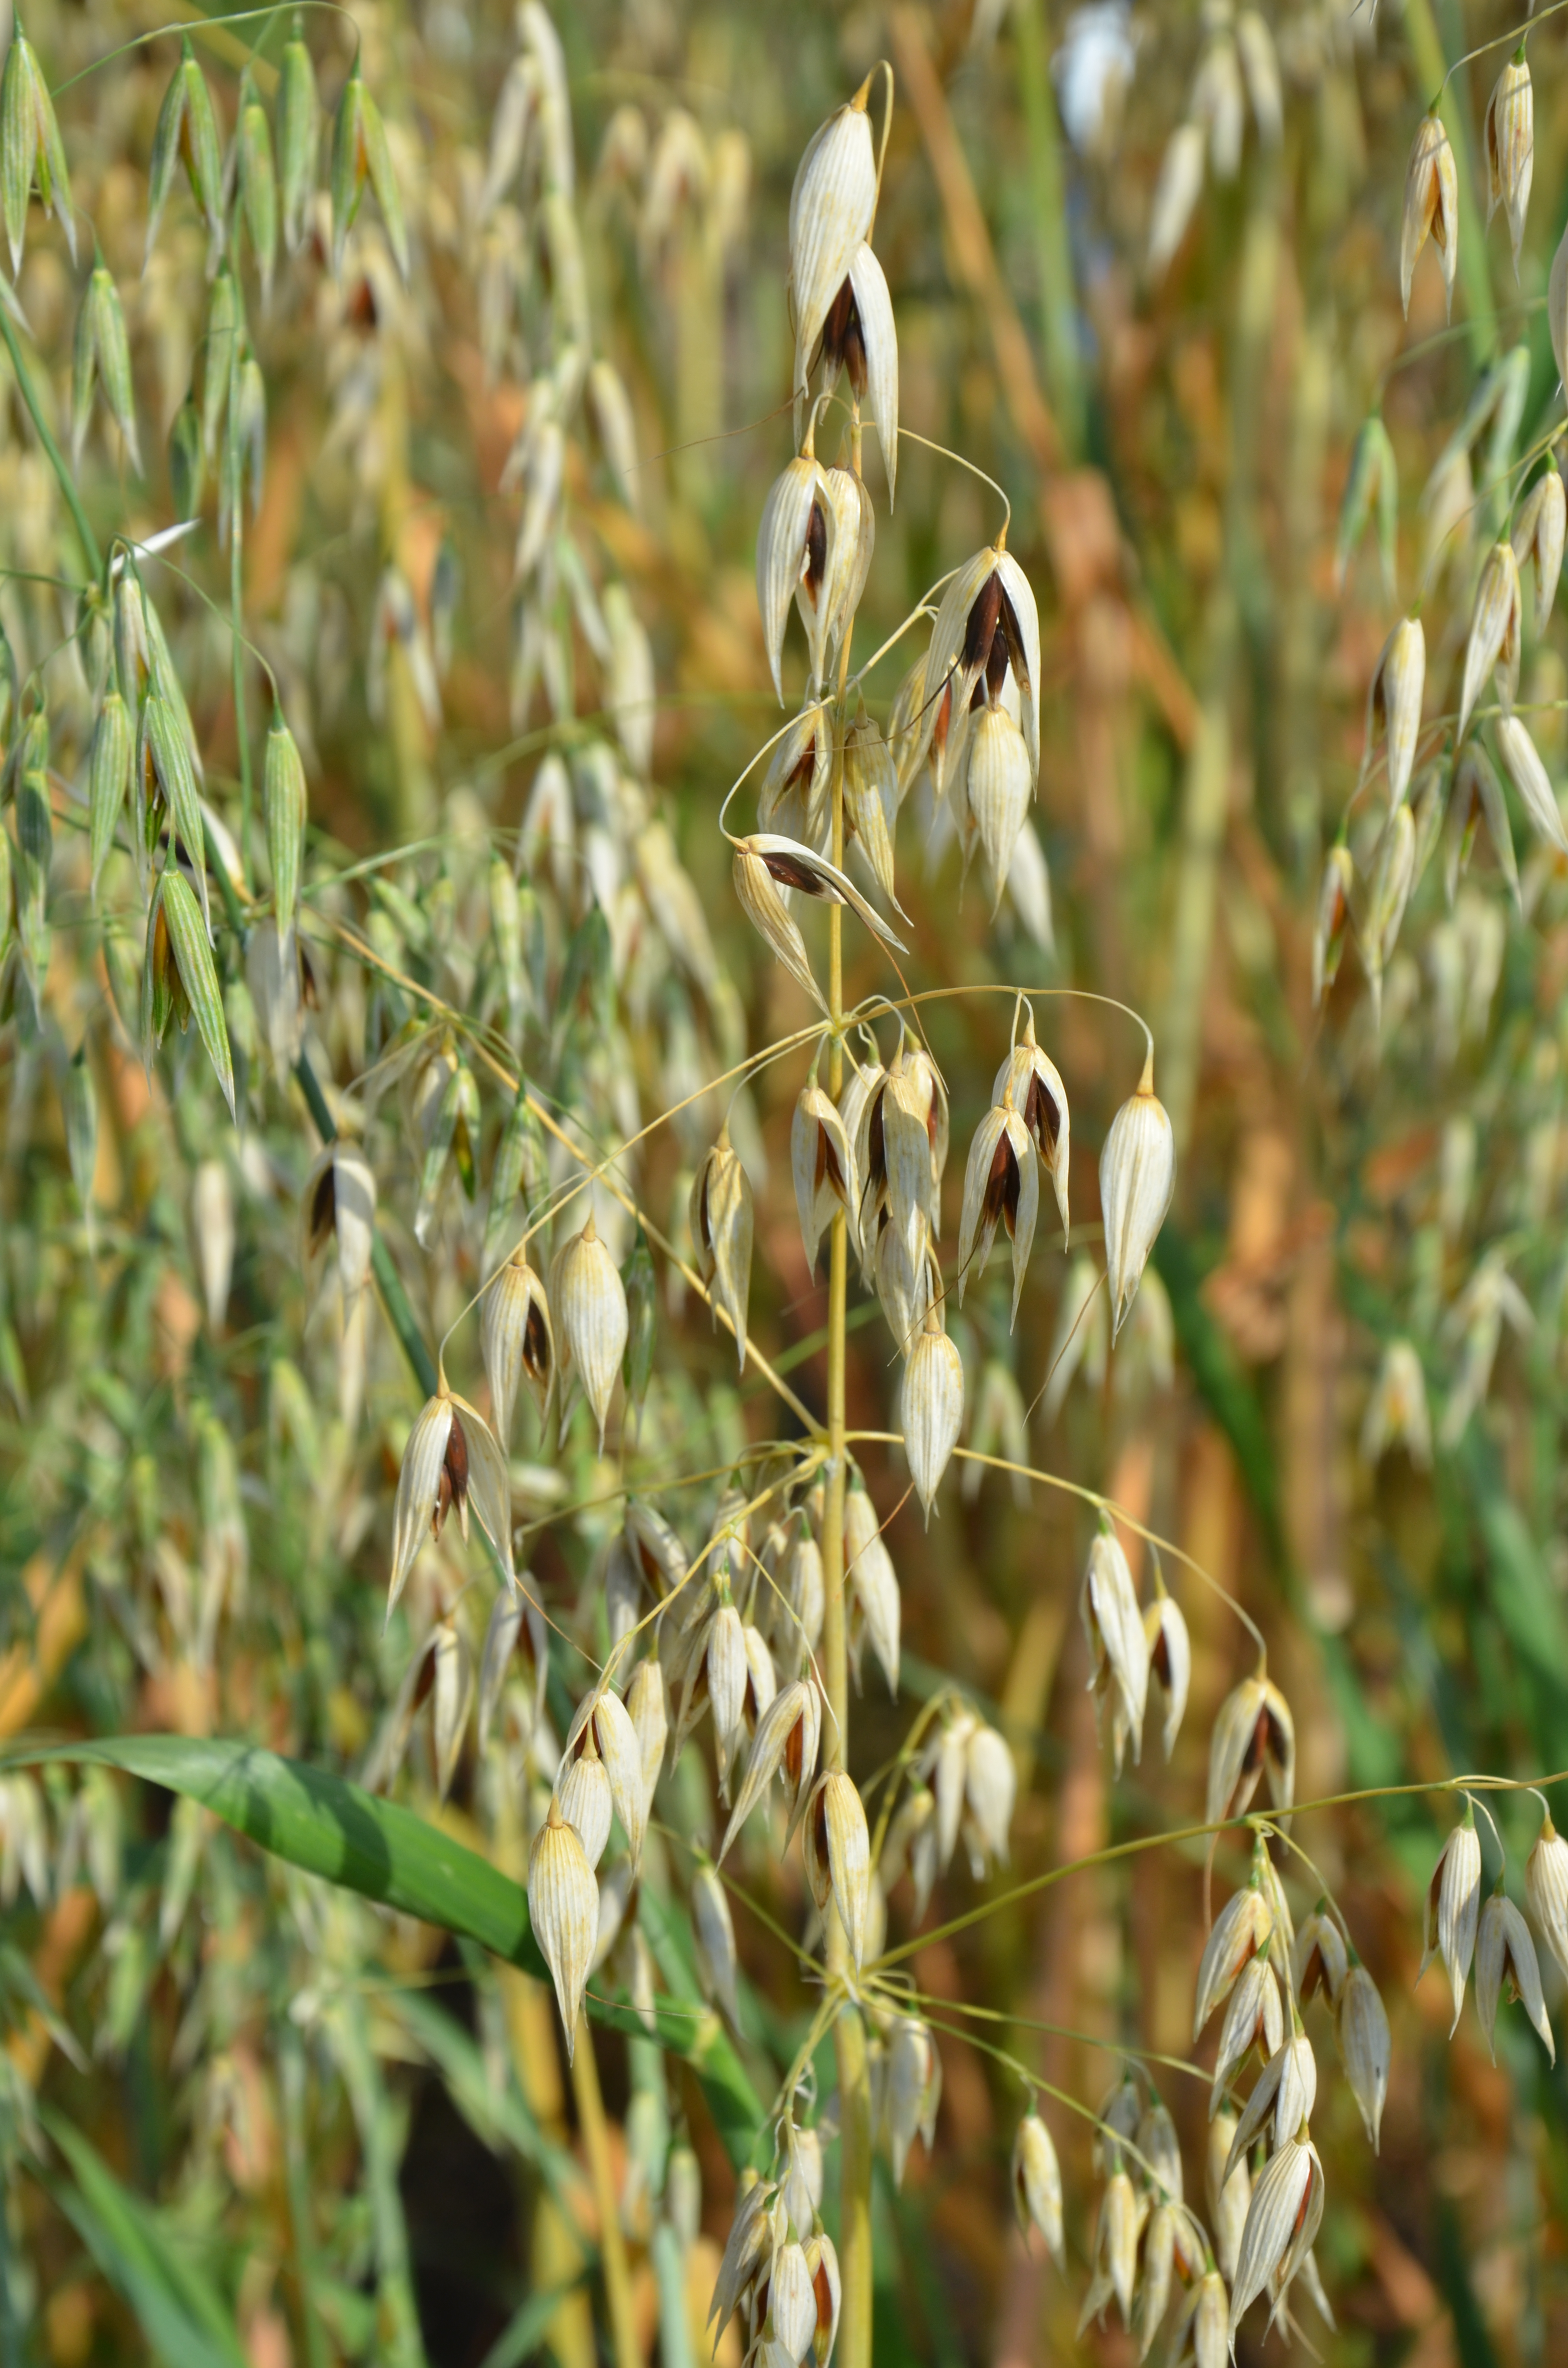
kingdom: Plantae
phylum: Tracheophyta
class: Liliopsida
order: Poales
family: Poaceae
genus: Avena
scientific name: Avena sativa
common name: Oat
